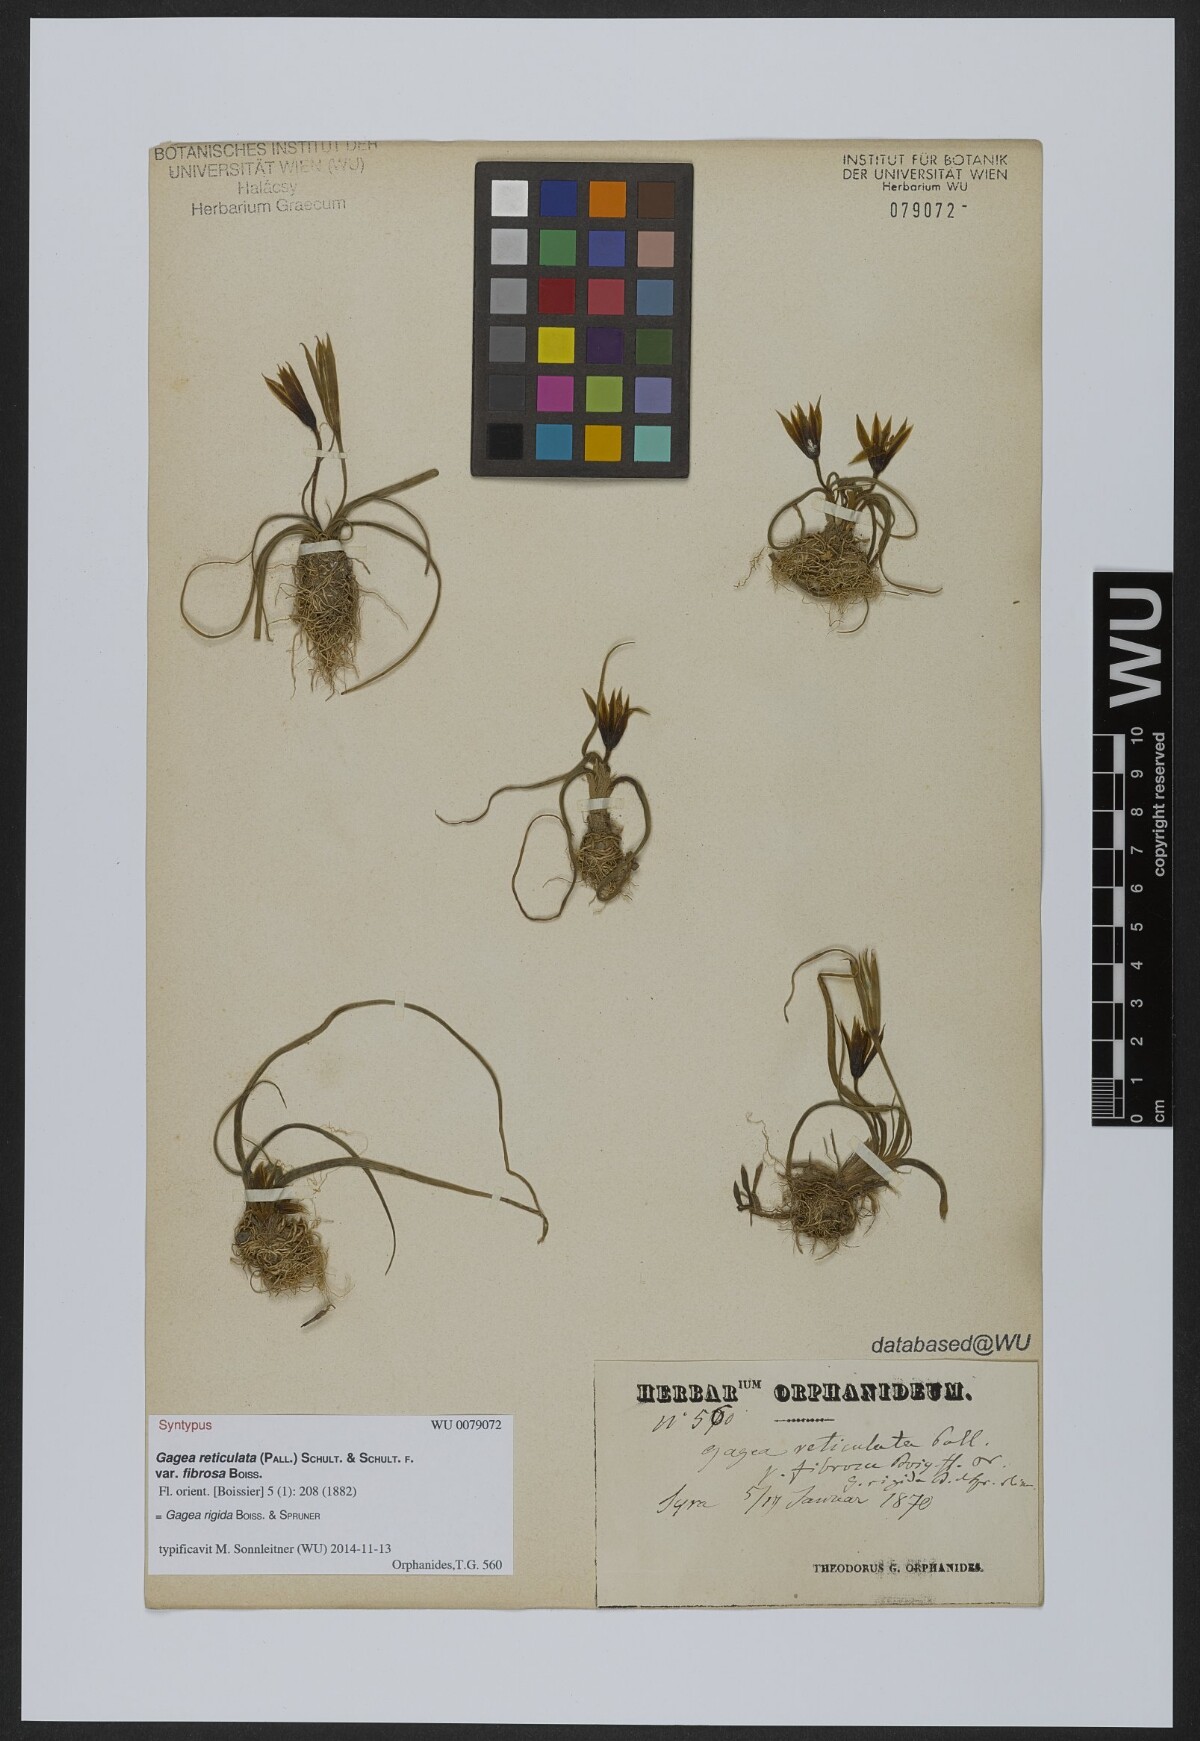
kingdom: Plantae
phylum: Tracheophyta
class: Liliopsida
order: Liliales
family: Liliaceae
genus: Gagea
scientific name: Gagea rigida
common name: Stiff gagea
